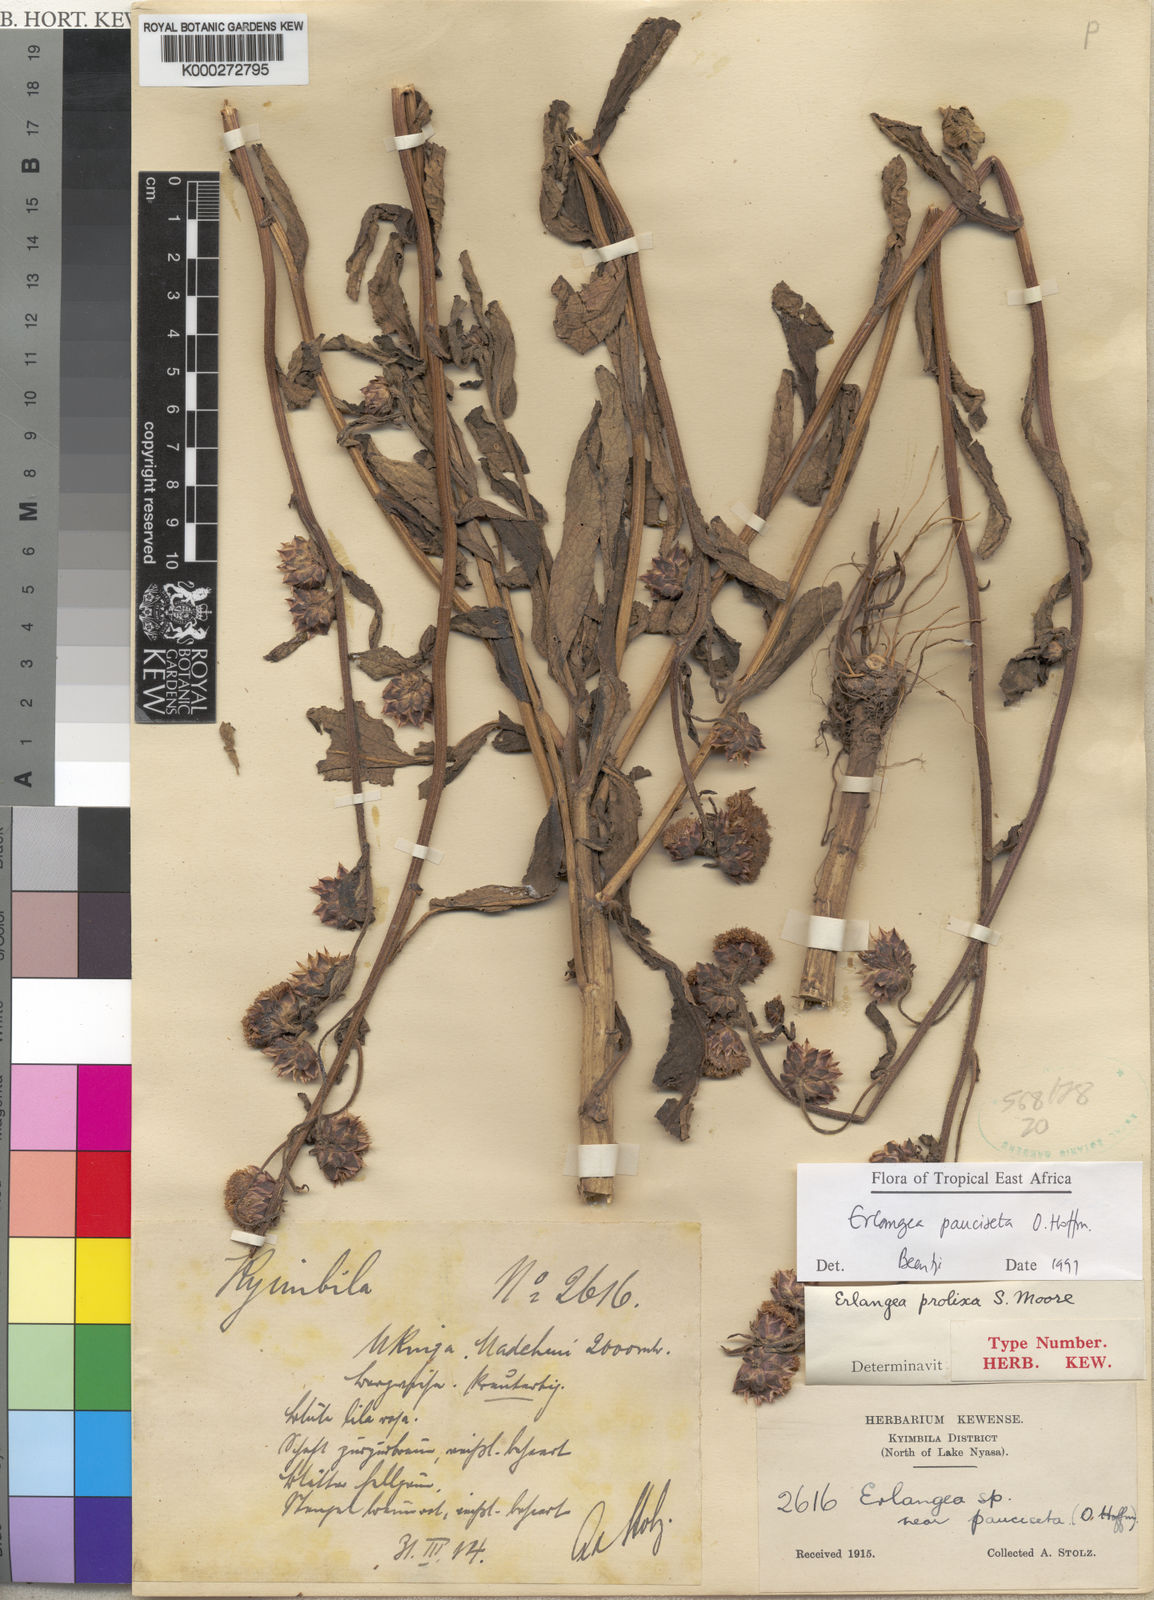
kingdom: Plantae
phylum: Tracheophyta
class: Magnoliopsida
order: Asterales
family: Asteraceae
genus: Bothriocline
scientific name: Bothriocline pauciseta
